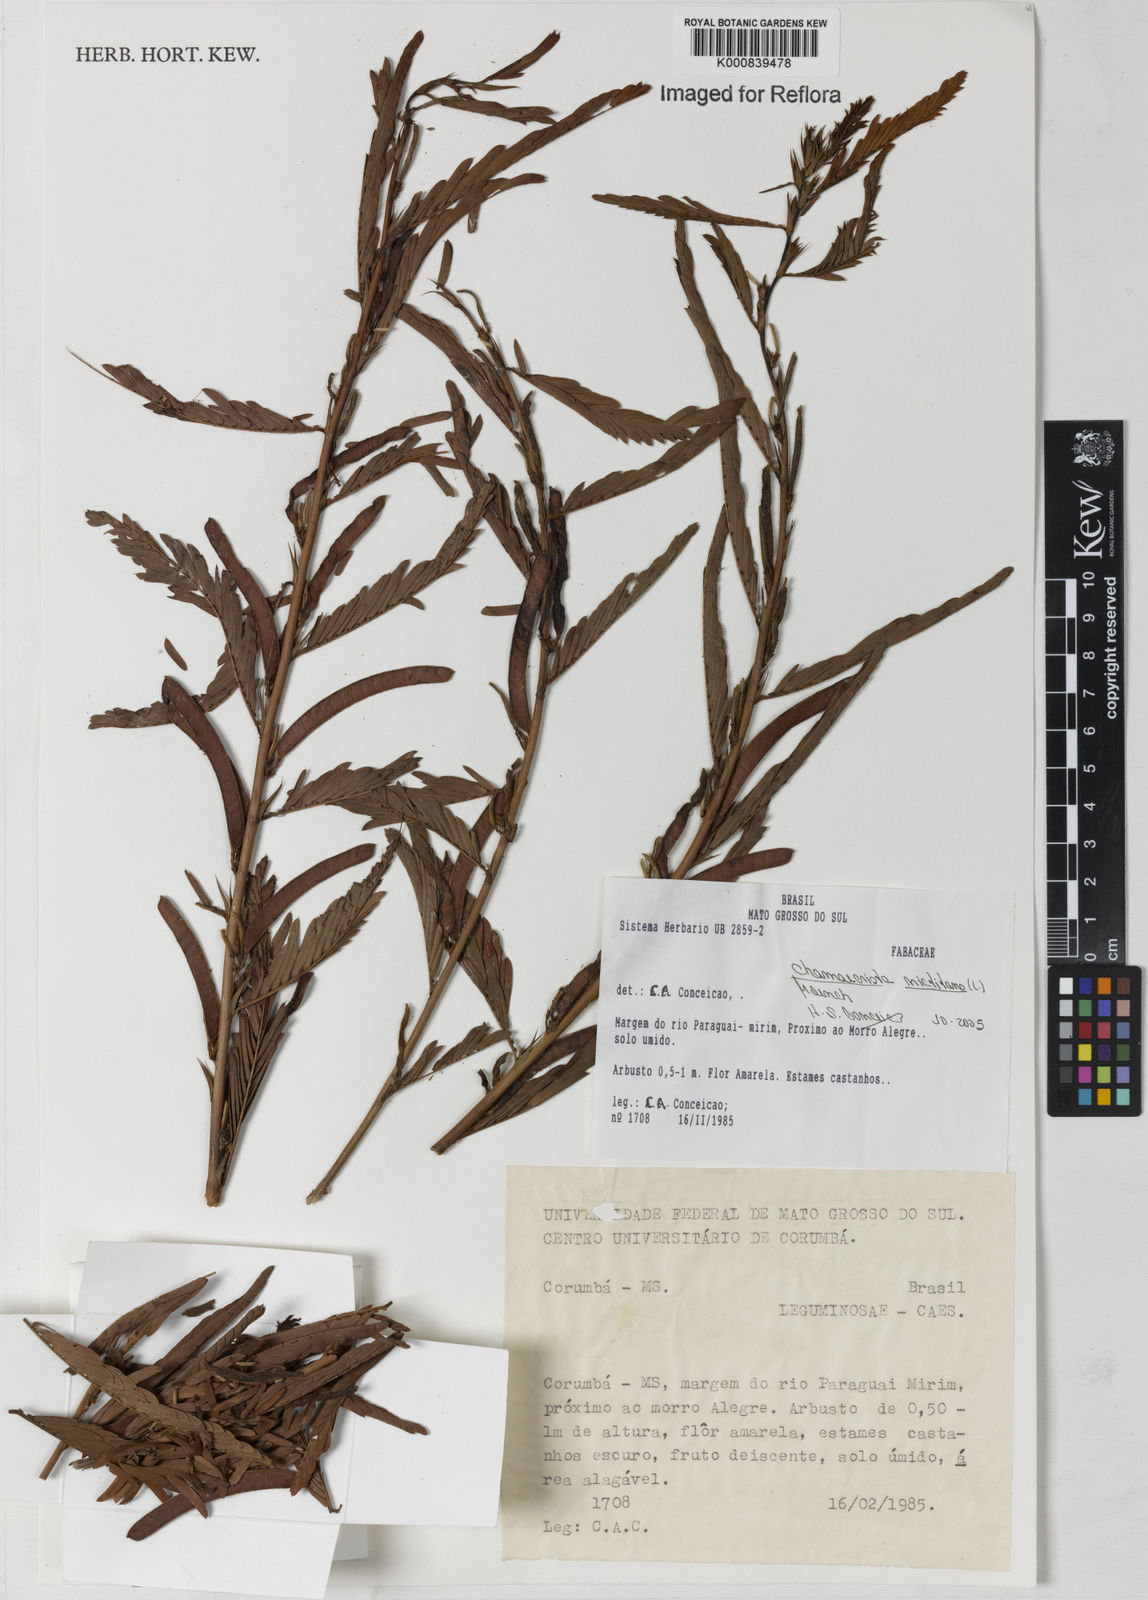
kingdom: Plantae
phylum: Tracheophyta
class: Magnoliopsida
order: Fabales
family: Fabaceae
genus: Chamaecrista
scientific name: Chamaecrista nictitans
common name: Sensitive cassia
